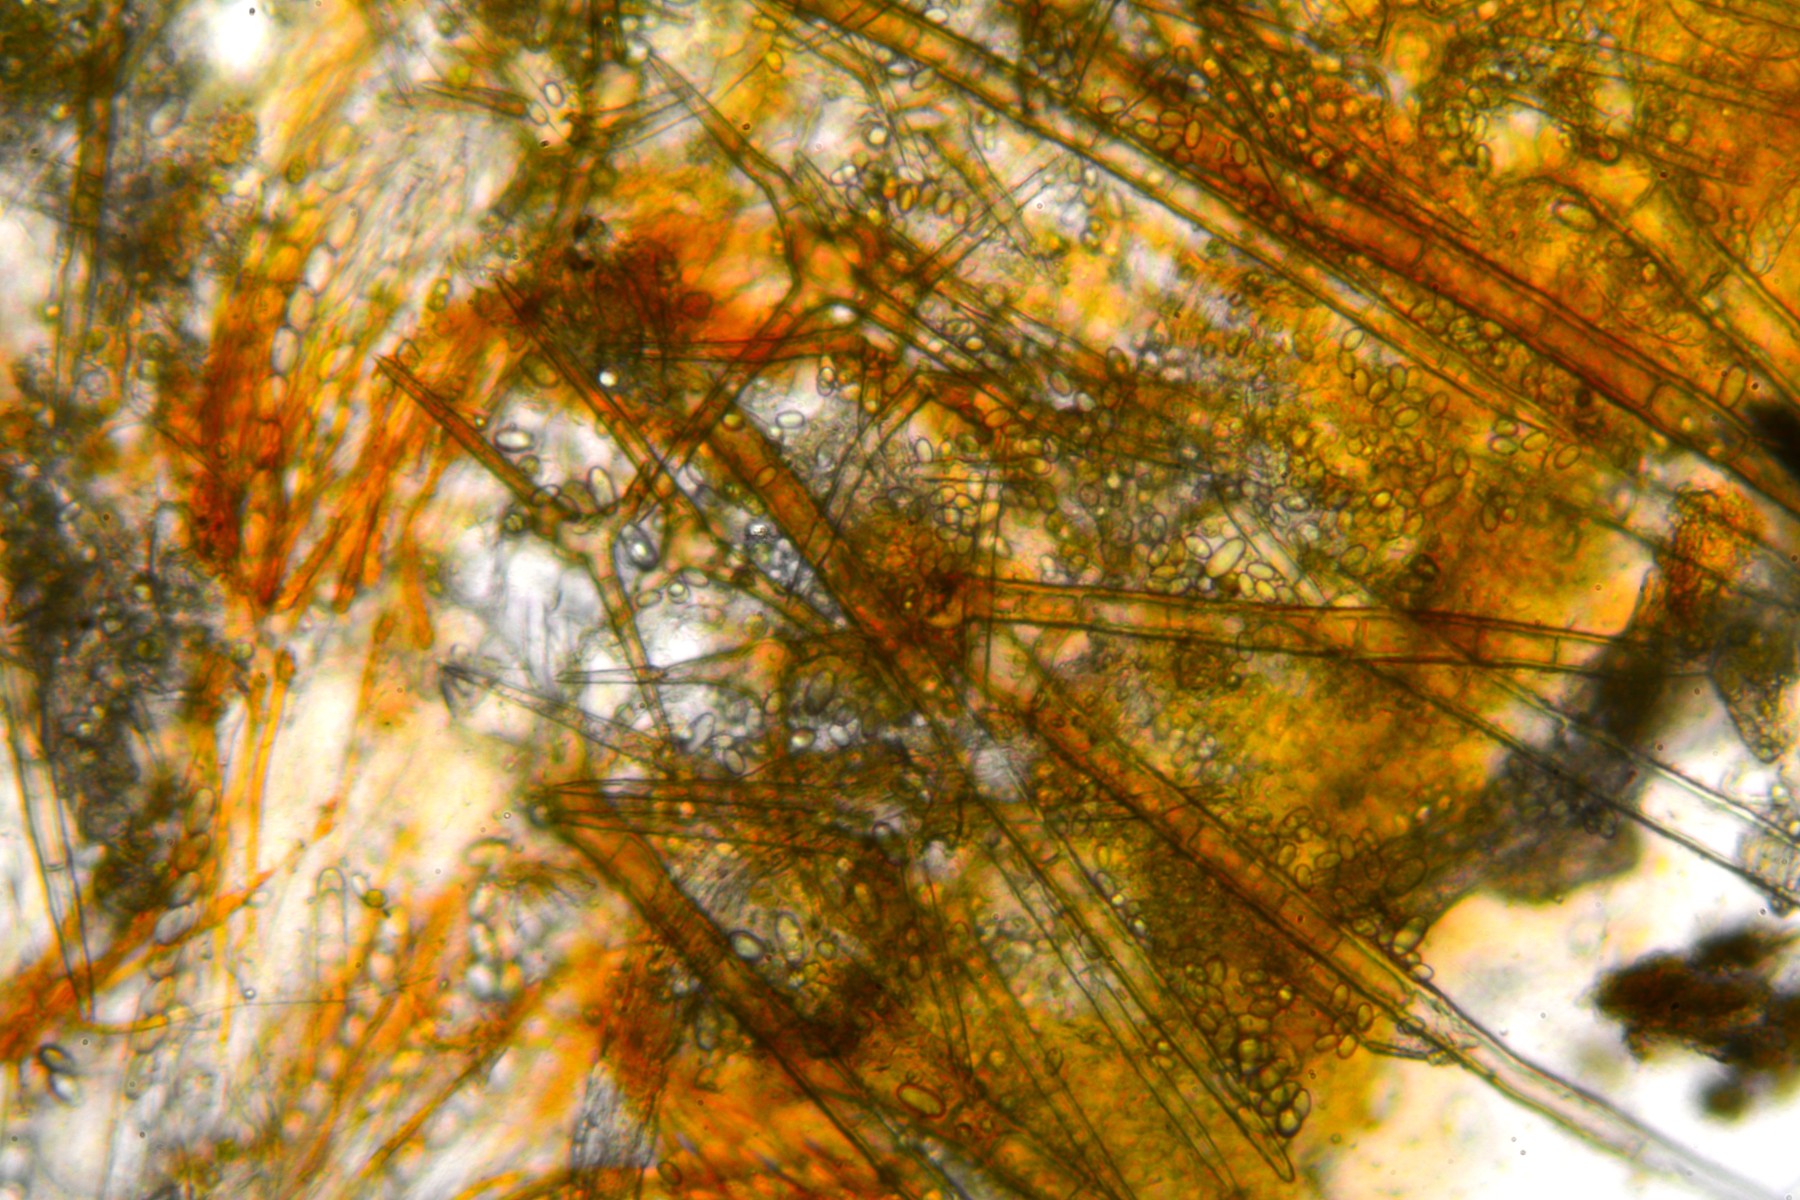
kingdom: Fungi
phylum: Ascomycota
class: Pezizomycetes
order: Pezizales
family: Pyronemataceae
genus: Cheilymenia
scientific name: Cheilymenia stercorea
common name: gødnings-hårbæger
